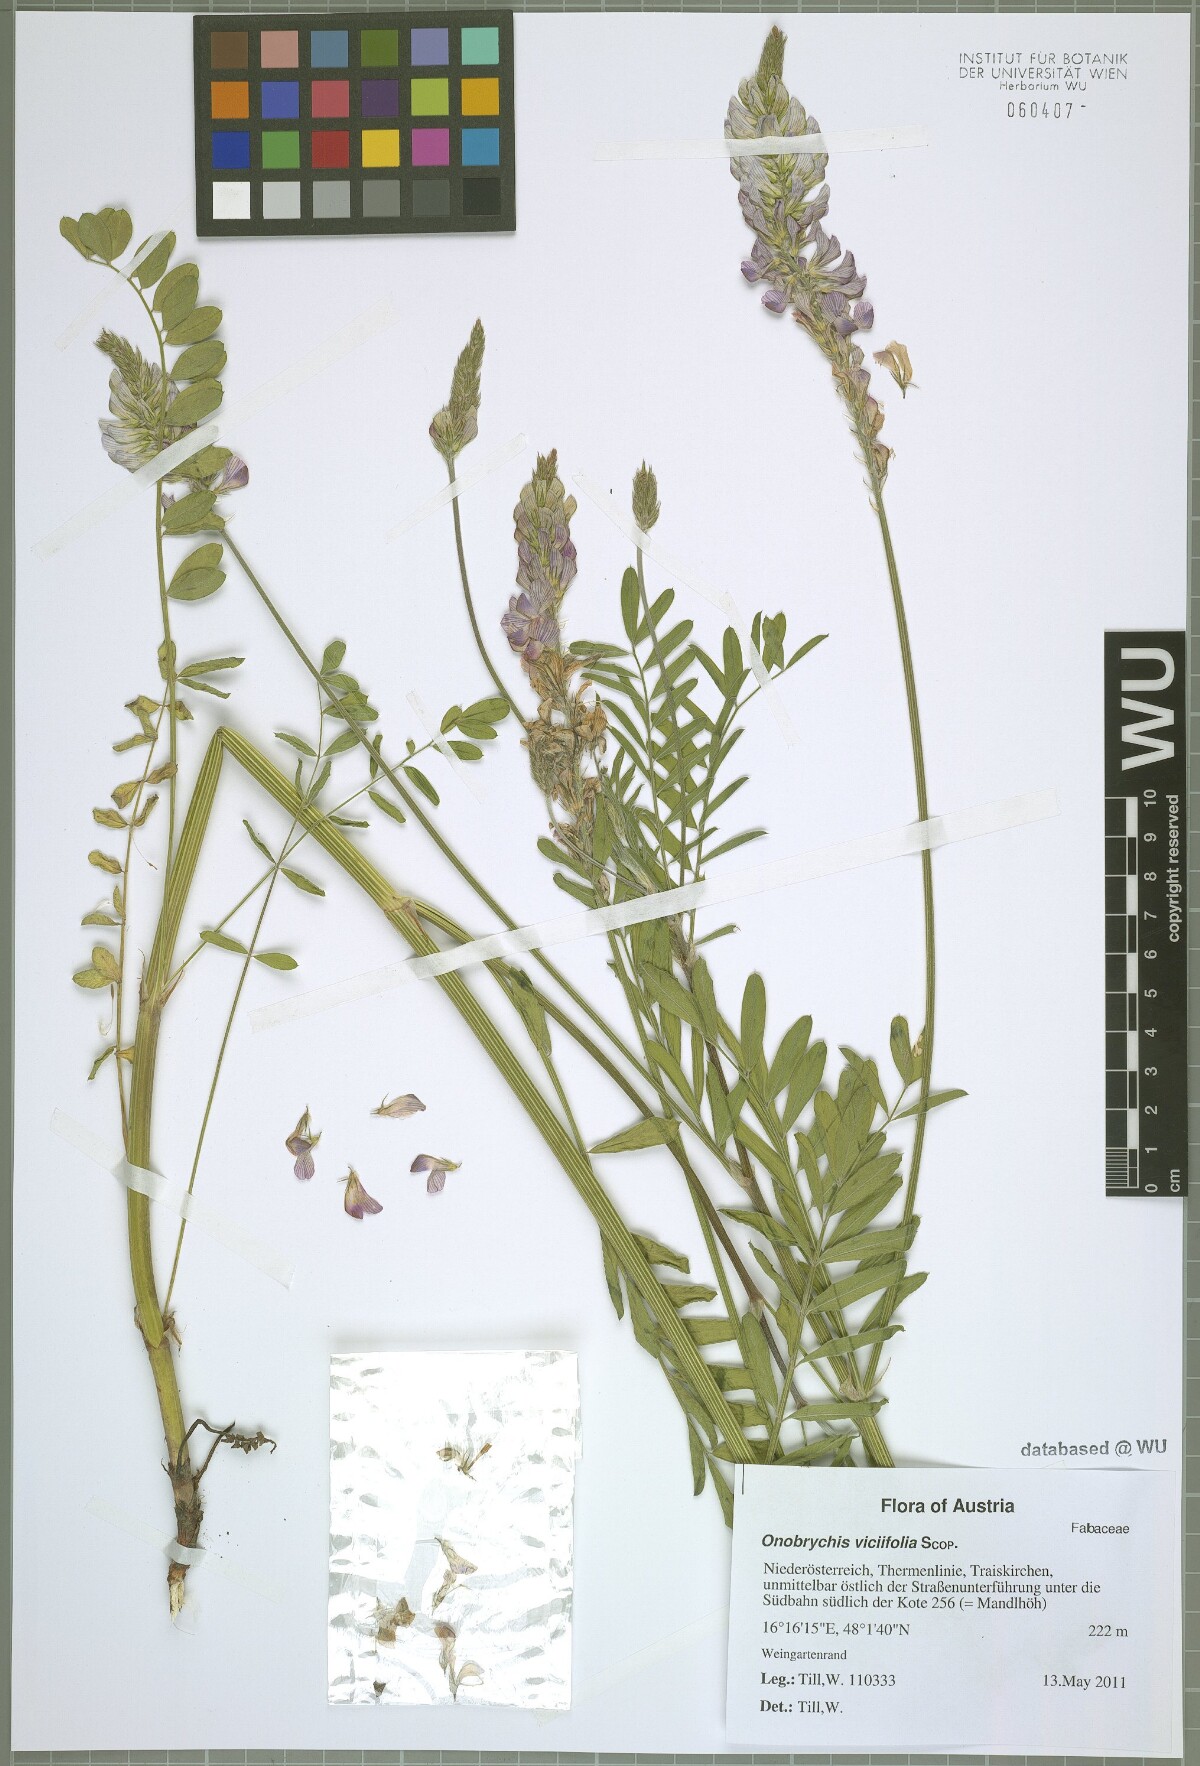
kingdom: Plantae
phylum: Tracheophyta
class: Magnoliopsida
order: Fabales
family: Fabaceae
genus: Onobrychis
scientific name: Onobrychis viciifolia
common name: Sainfoin
